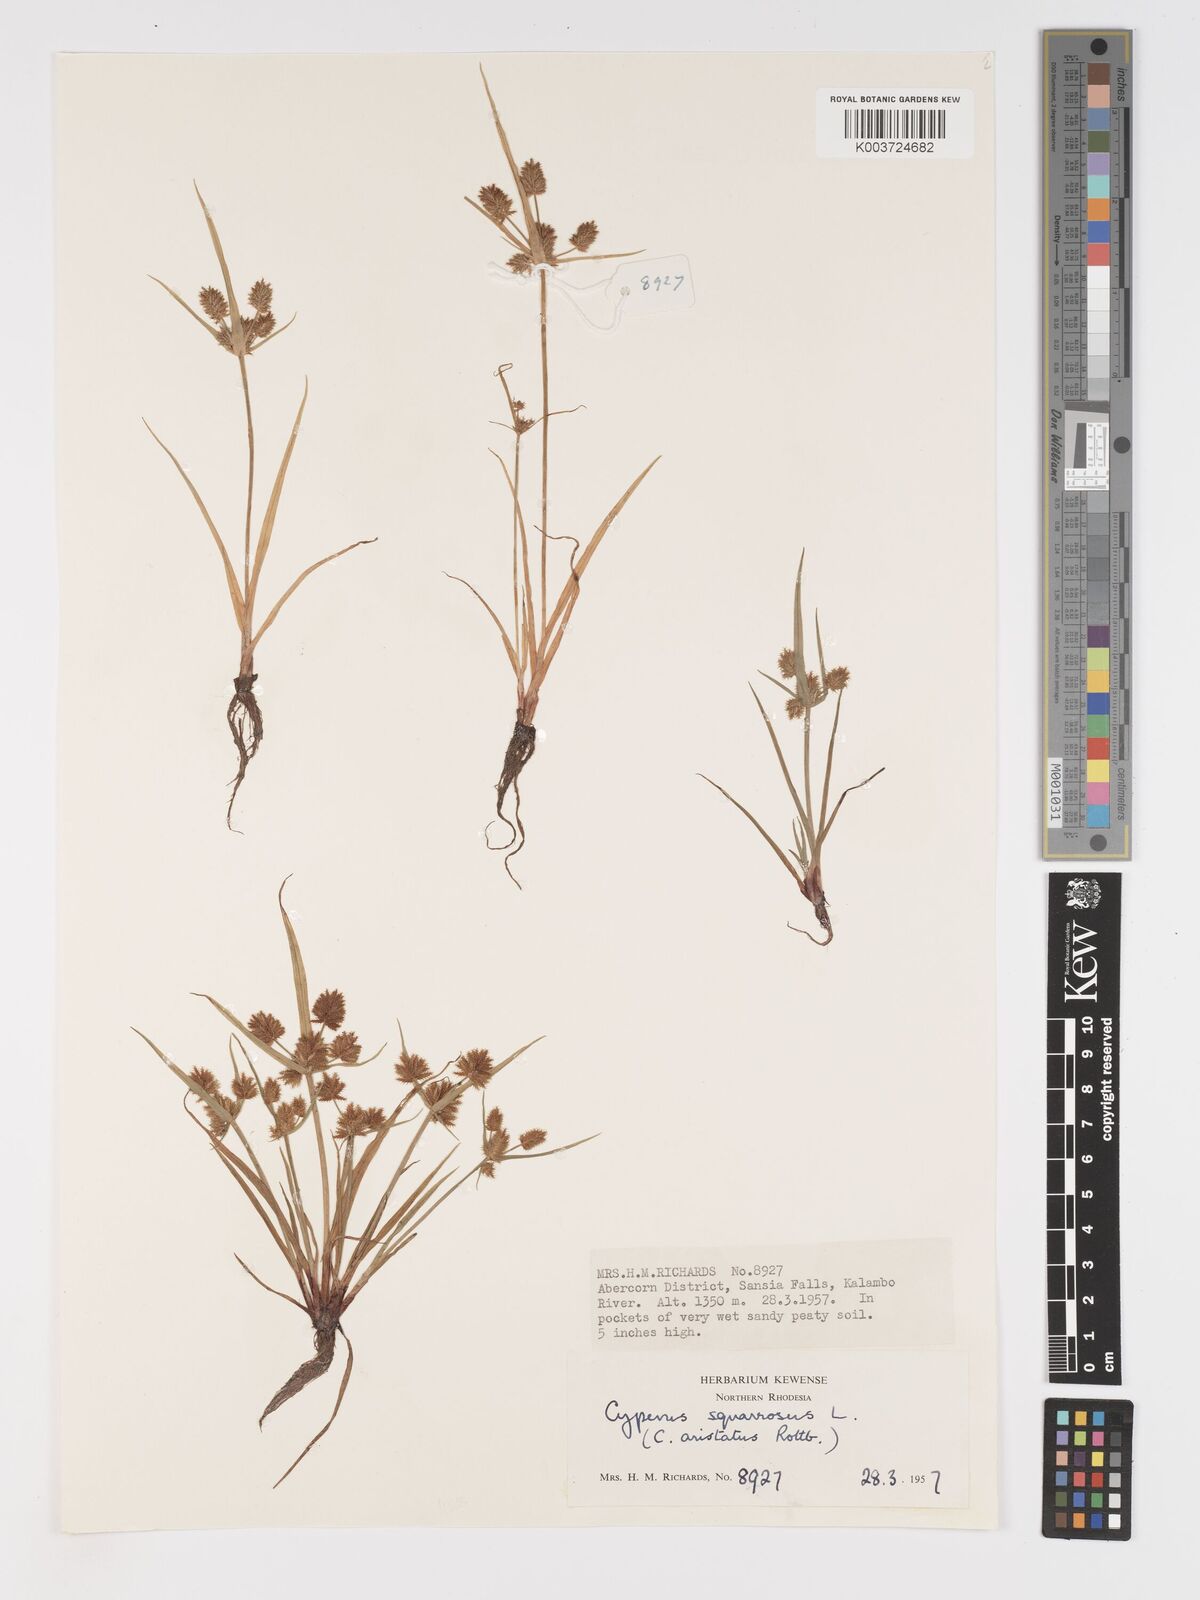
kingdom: Plantae
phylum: Tracheophyta
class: Liliopsida
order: Poales
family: Cyperaceae
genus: Cyperus
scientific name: Cyperus squarrosus
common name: Awned cyperus
